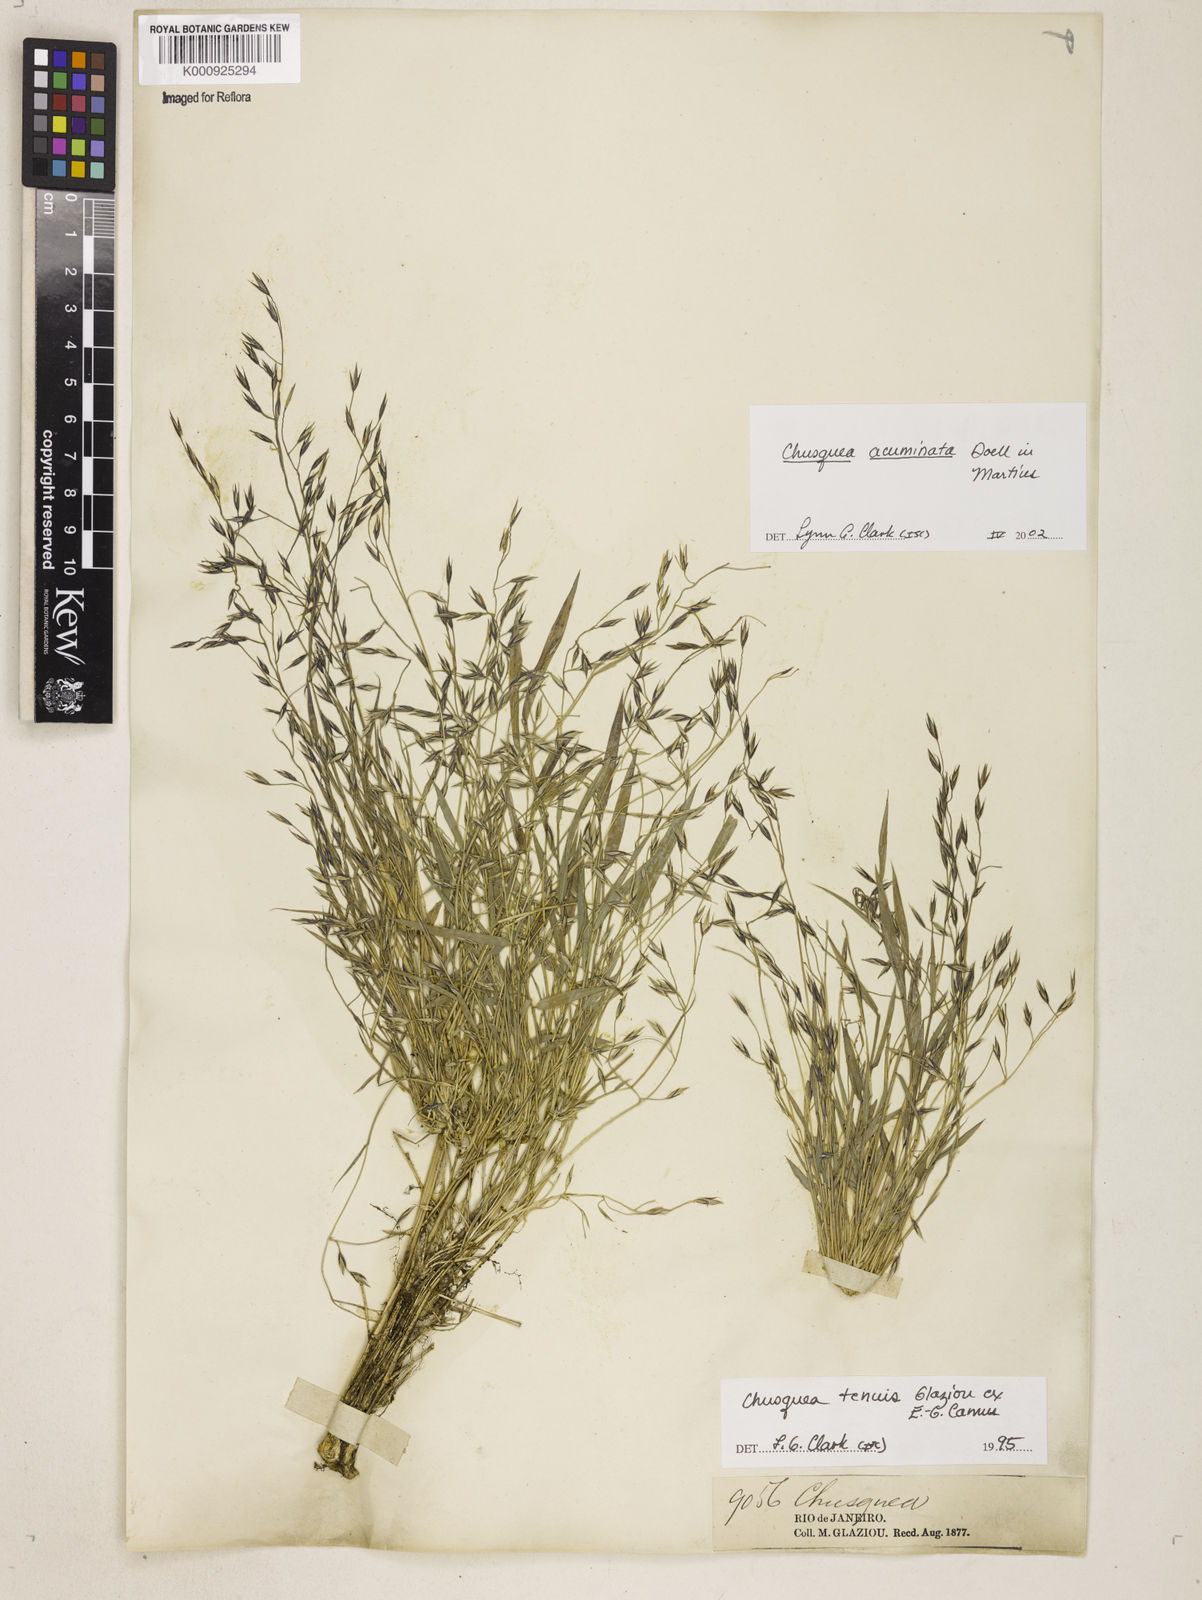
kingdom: Plantae
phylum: Tracheophyta
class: Liliopsida
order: Poales
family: Poaceae
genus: Chusquea
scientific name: Chusquea
